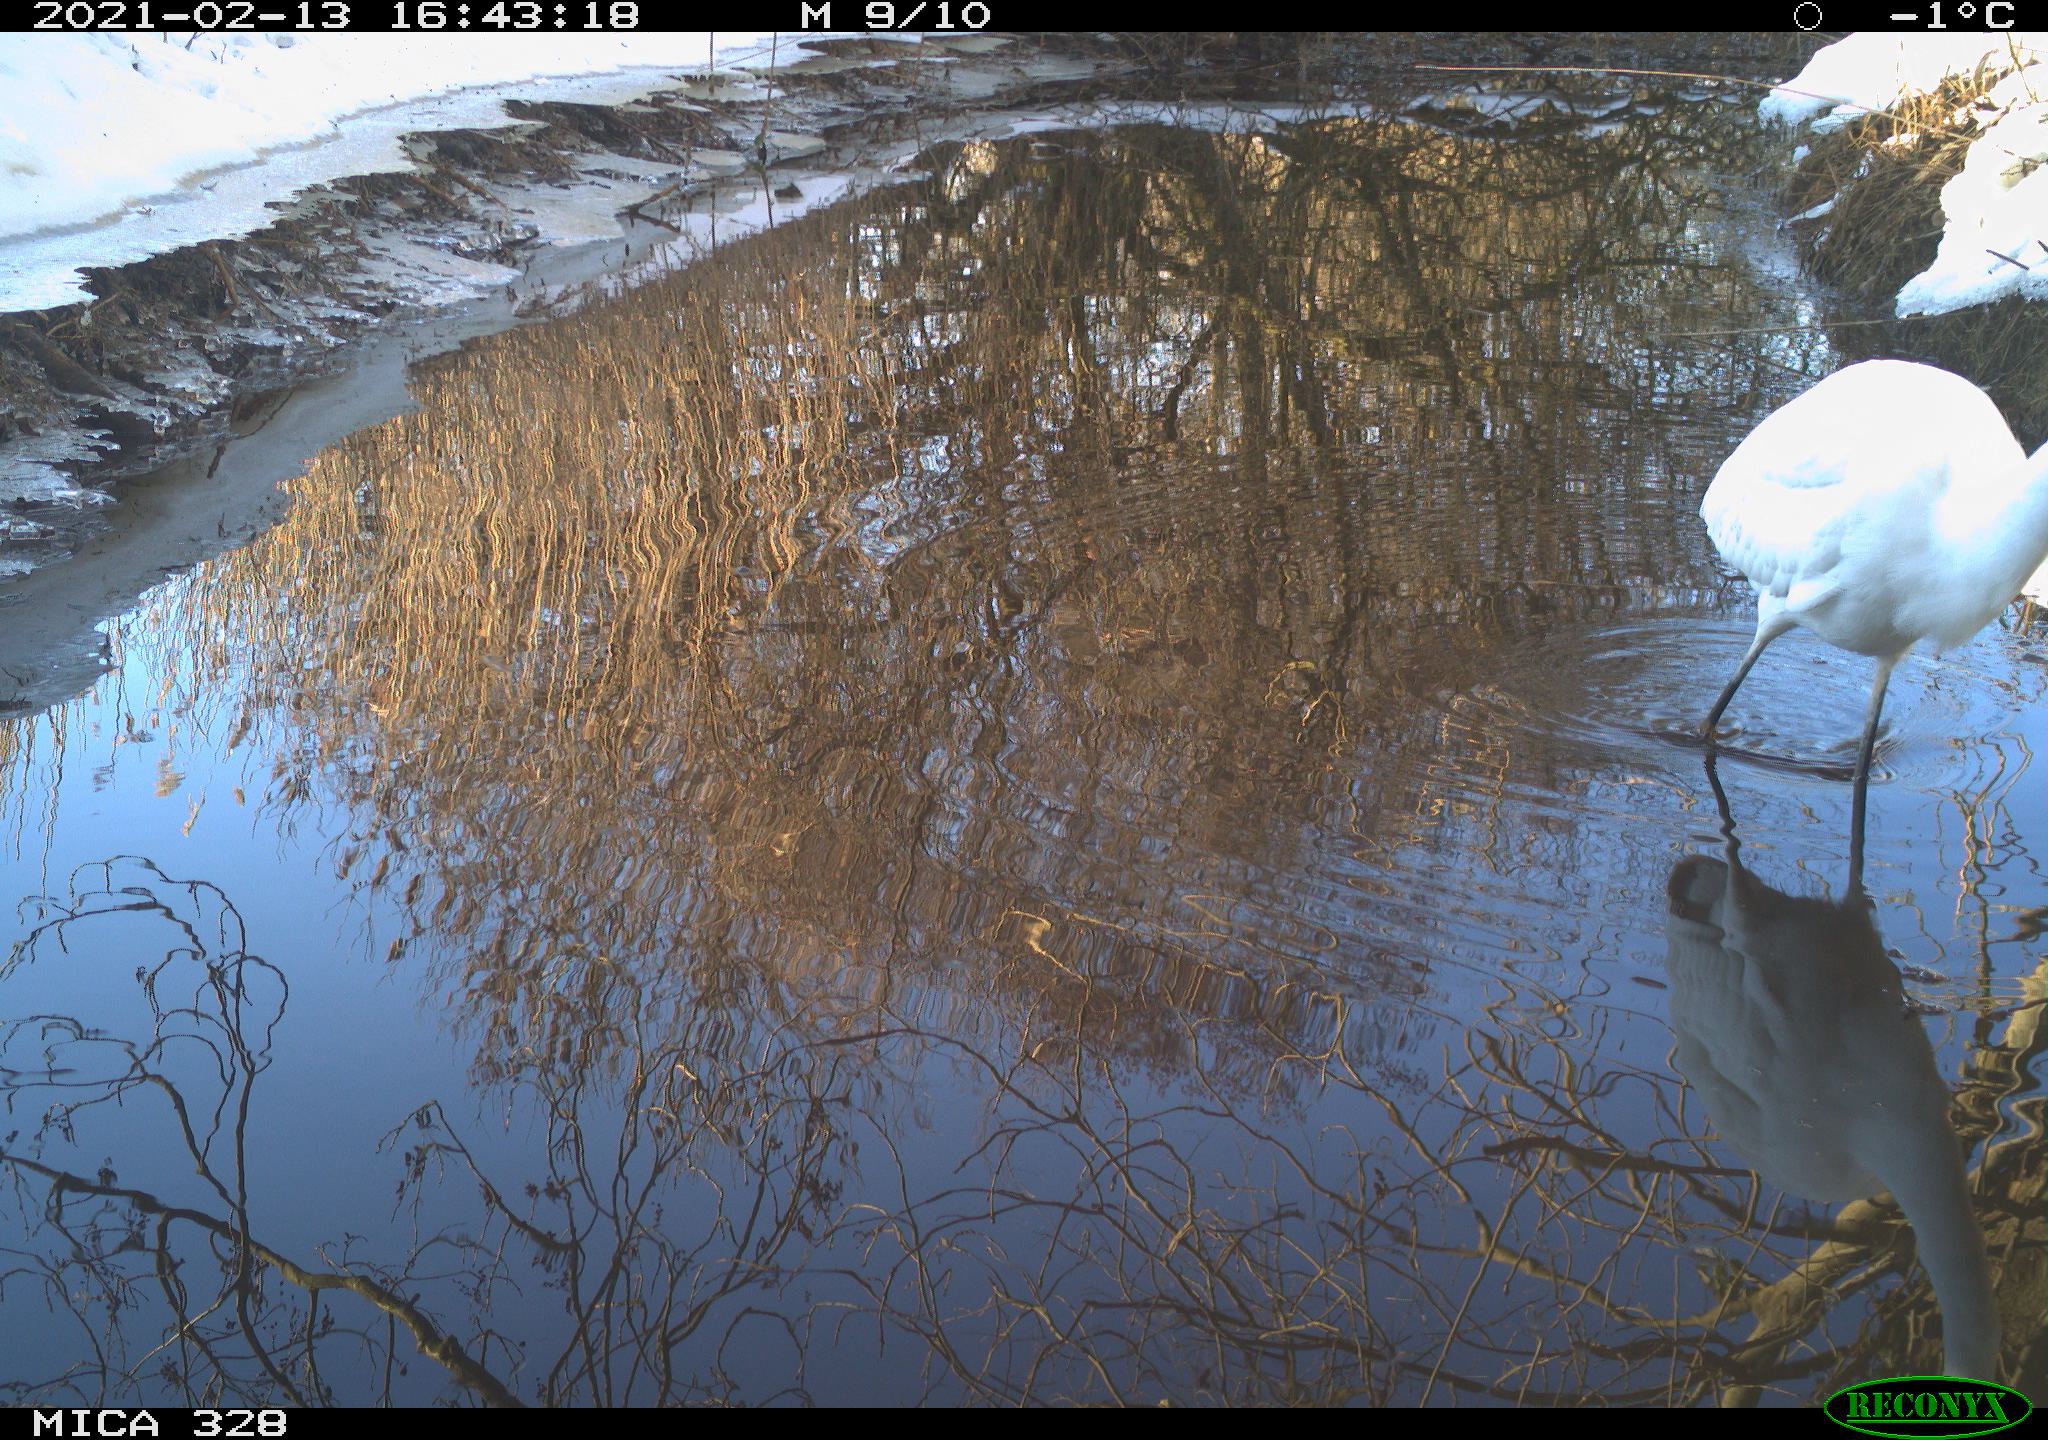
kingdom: Animalia
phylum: Chordata
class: Aves
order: Pelecaniformes
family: Ardeidae
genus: Ardea
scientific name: Ardea alba
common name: Great egret
